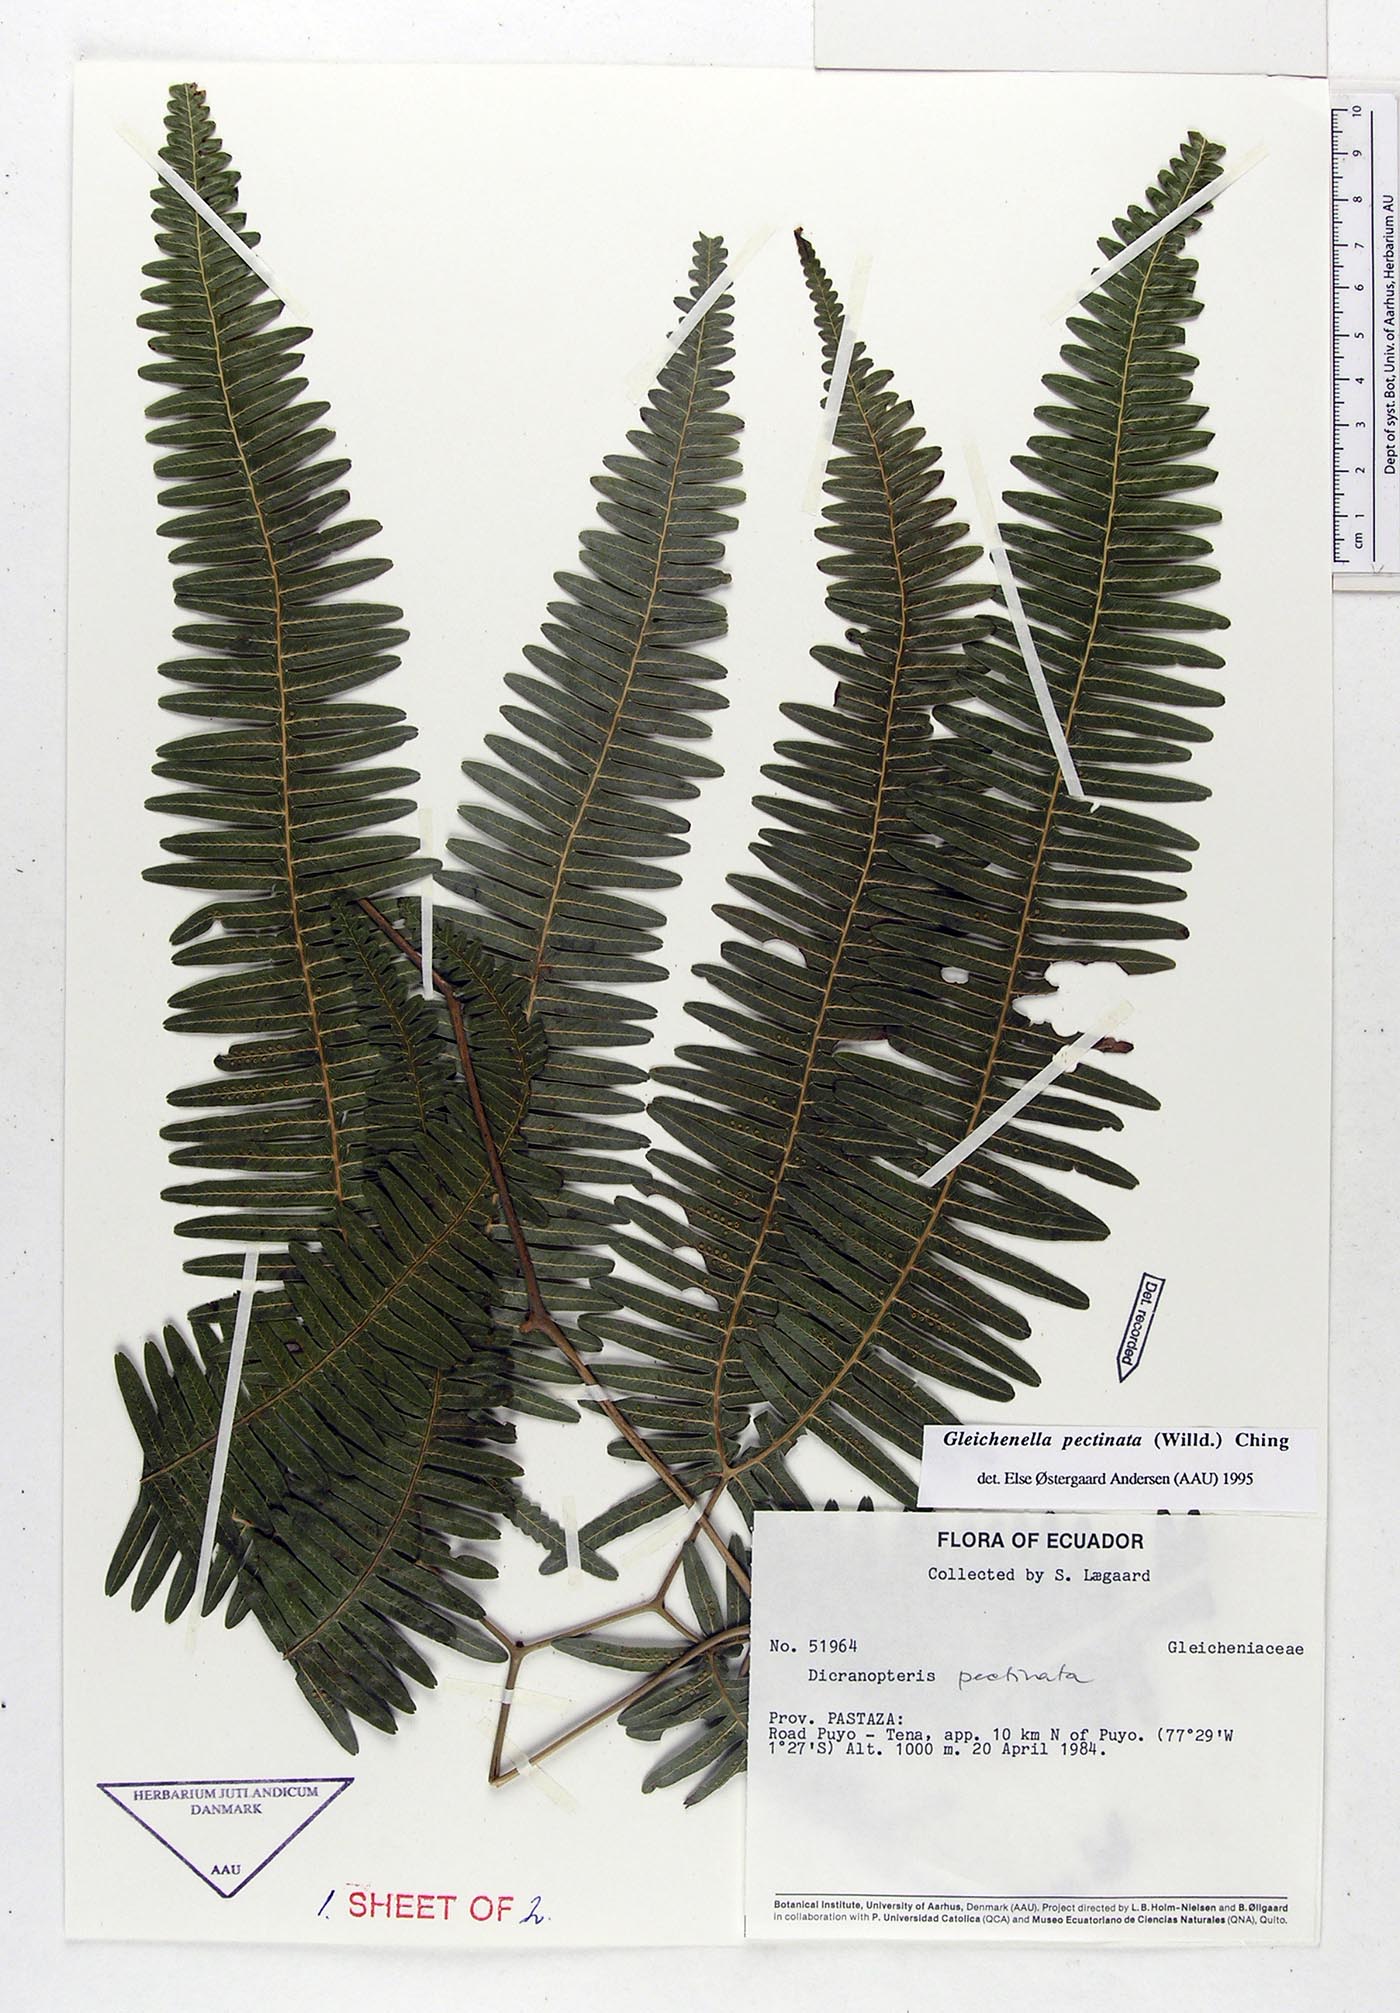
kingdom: Plantae
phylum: Tracheophyta
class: Polypodiopsida
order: Gleicheniales
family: Gleicheniaceae
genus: Gleichenella
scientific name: Gleichenella pectinata
